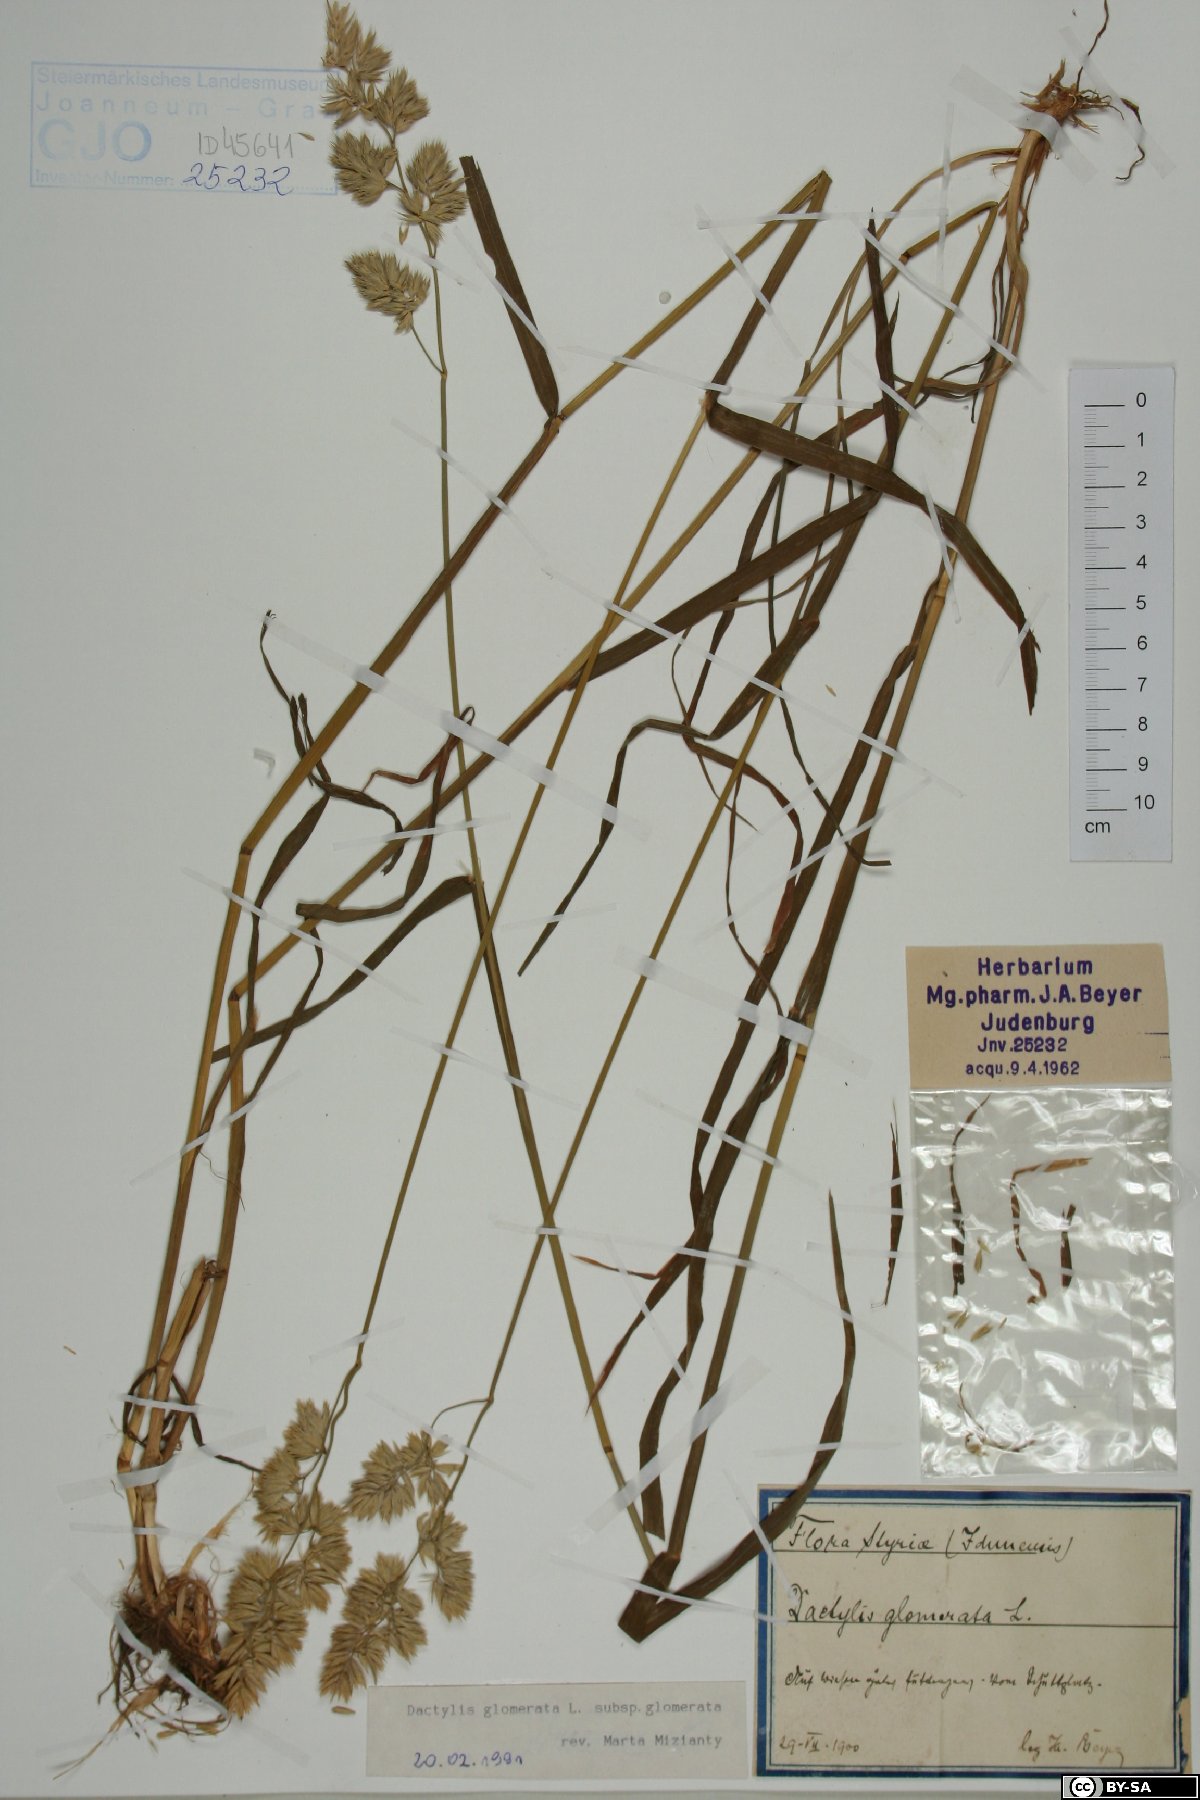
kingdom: Plantae
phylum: Tracheophyta
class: Liliopsida
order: Poales
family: Poaceae
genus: Dactylis
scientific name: Dactylis glomerata
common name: Orchardgrass
